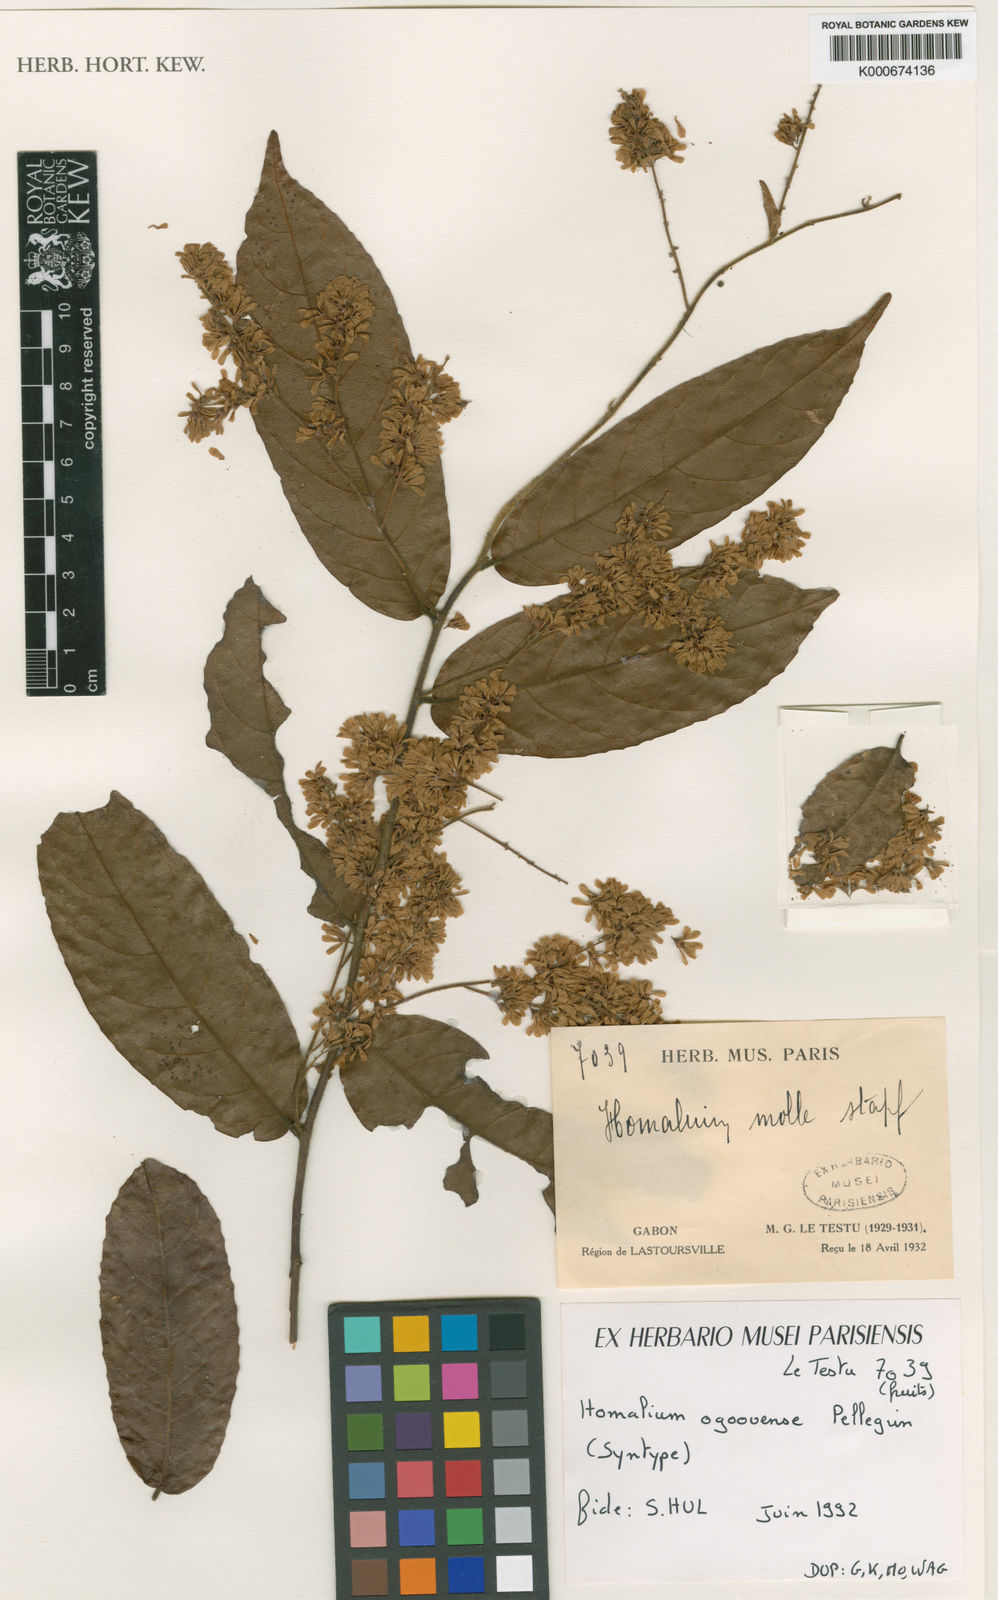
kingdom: Plantae
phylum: Tracheophyta
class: Magnoliopsida
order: Malpighiales
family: Salicaceae
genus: Homalium
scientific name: Homalium ogoouense
